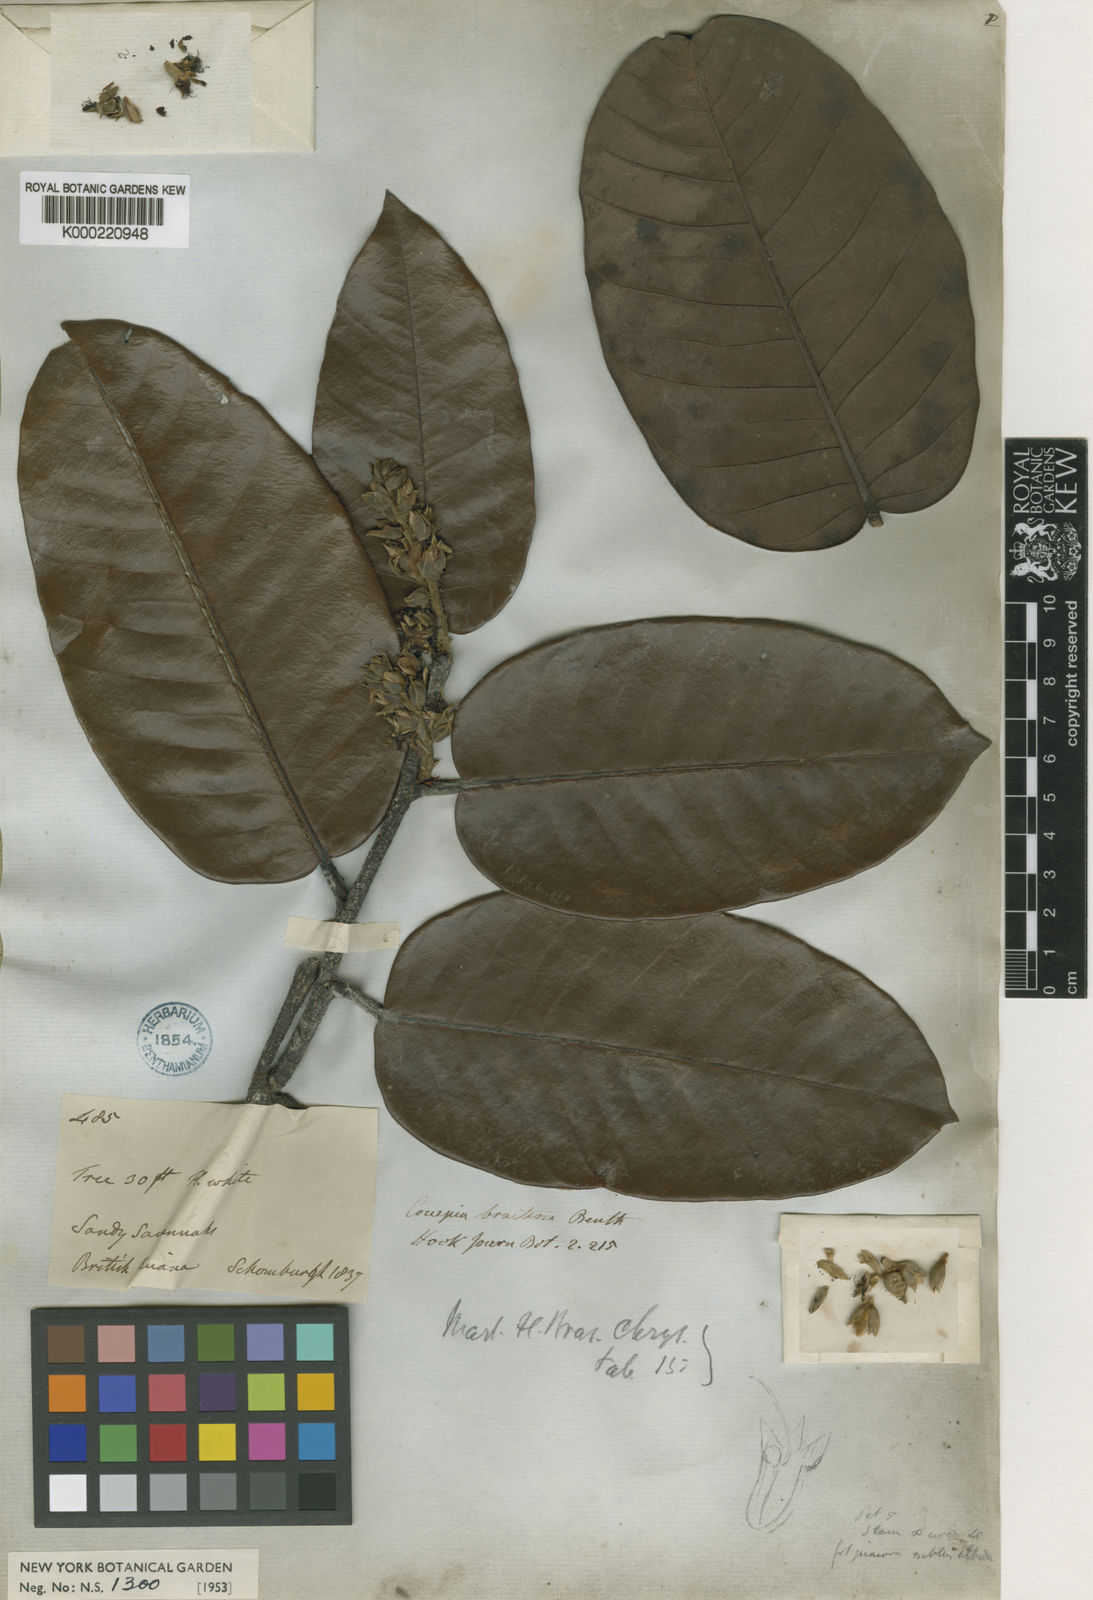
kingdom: Plantae
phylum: Tracheophyta
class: Magnoliopsida
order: Malpighiales
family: Chrysobalanaceae
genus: Couepia
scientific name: Couepia bracteosa
